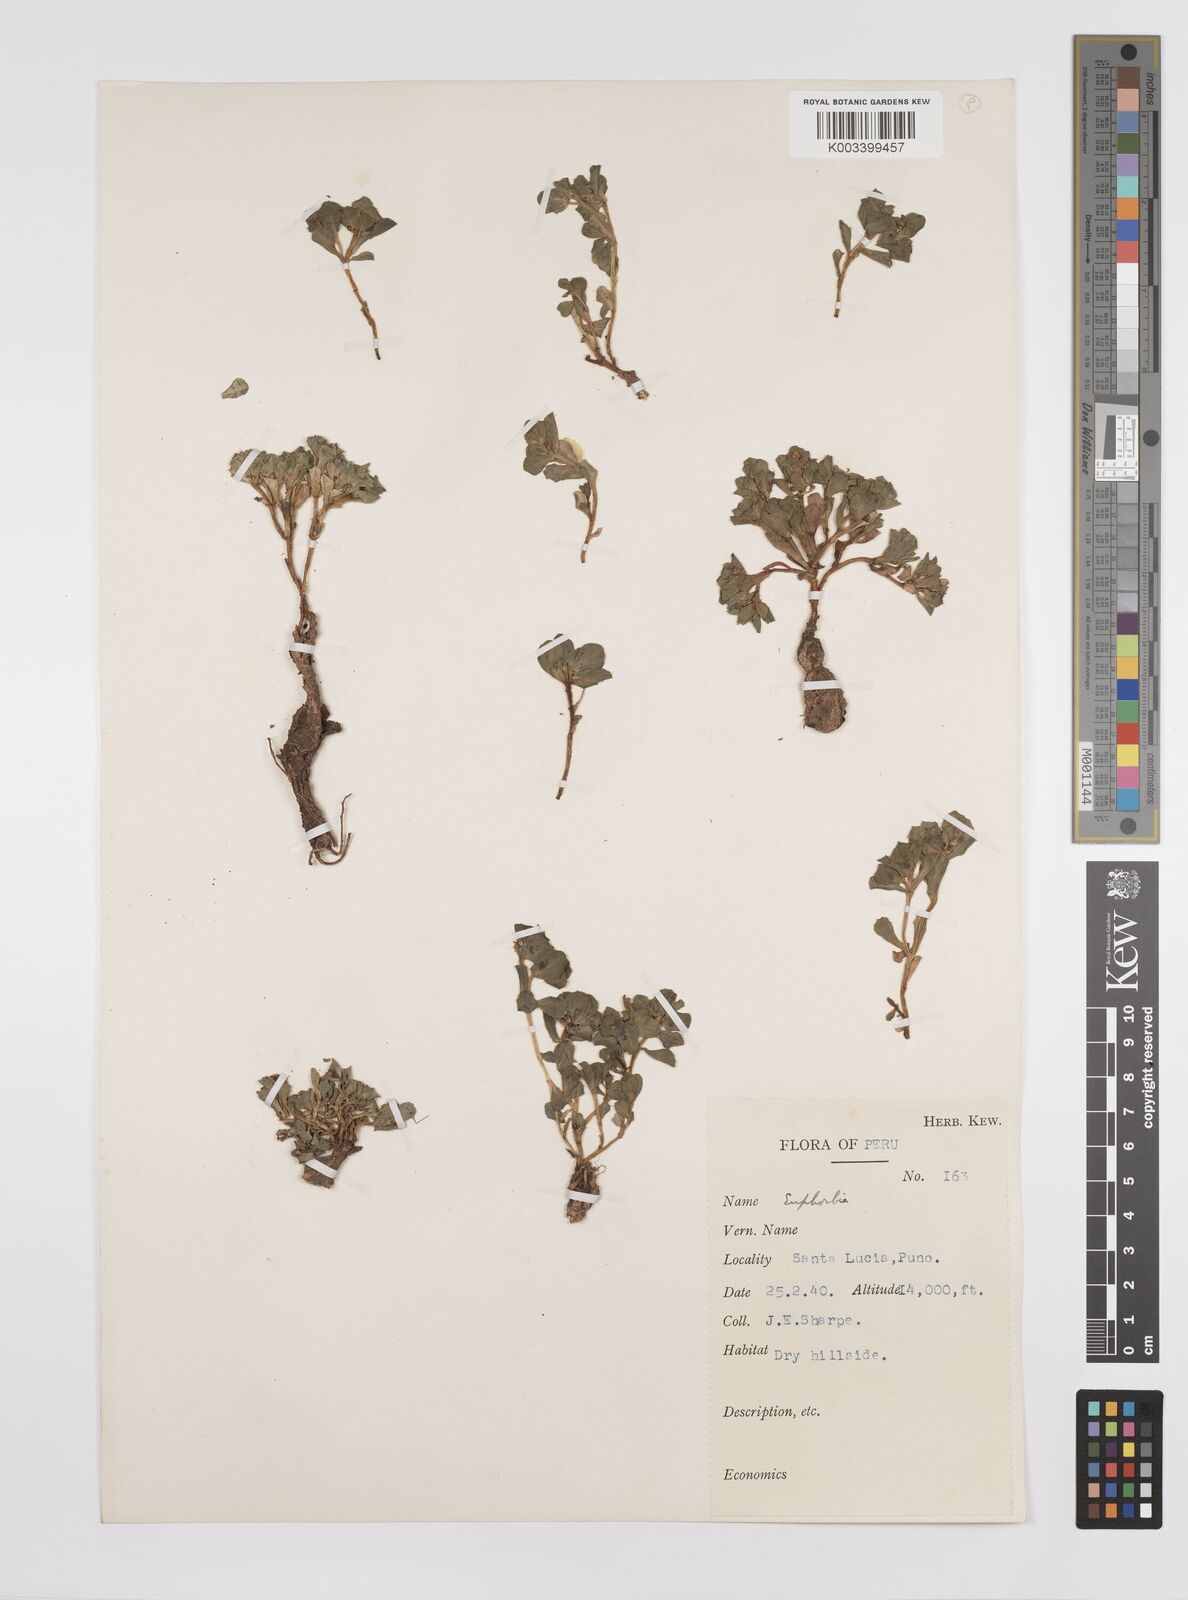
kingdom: Plantae
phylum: Tracheophyta
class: Magnoliopsida
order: Malpighiales
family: Euphorbiaceae
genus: Euphorbia
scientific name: Euphorbia
